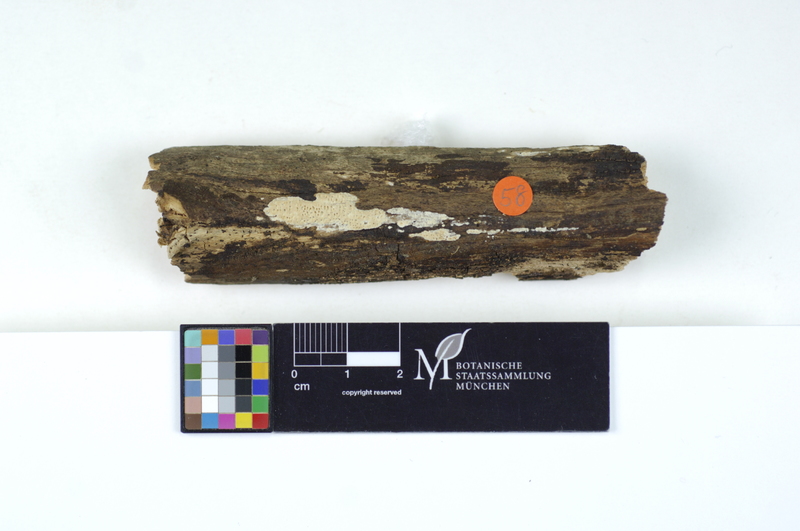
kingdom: Plantae
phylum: Tracheophyta
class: Magnoliopsida
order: Fagales
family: Fagaceae
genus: Fagus
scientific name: Fagus sylvatica
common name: Beech
